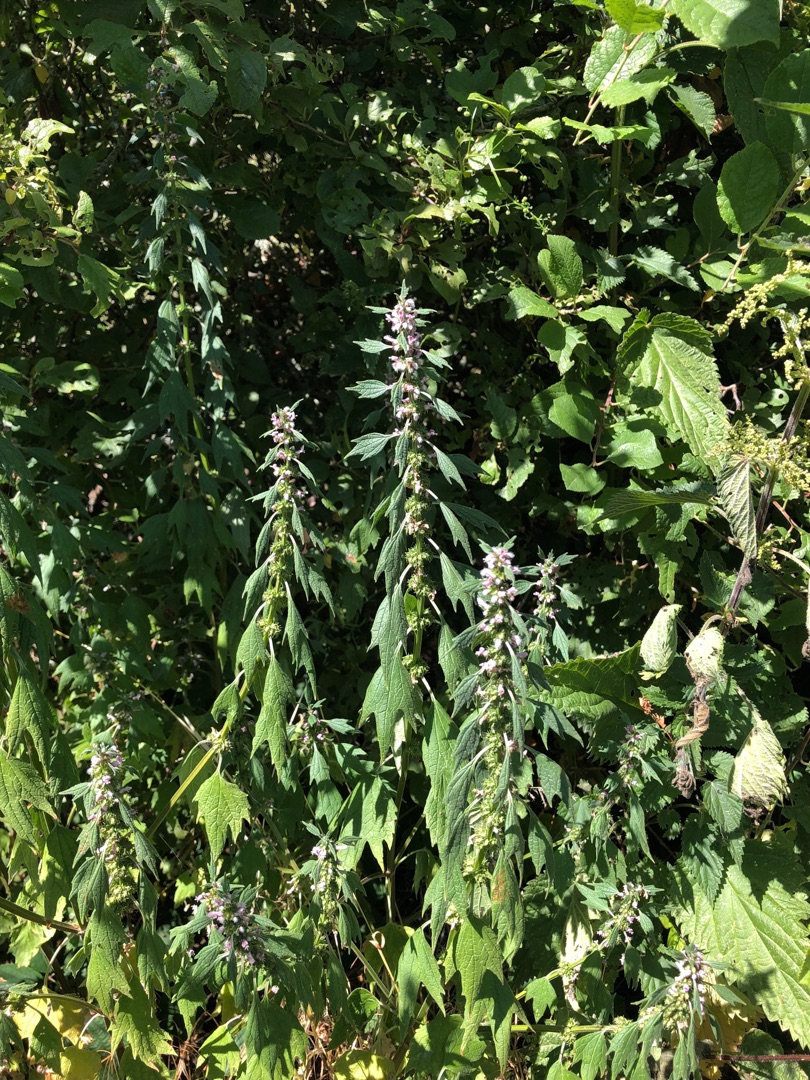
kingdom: Plantae
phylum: Tracheophyta
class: Magnoliopsida
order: Lamiales
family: Lamiaceae
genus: Leonurus
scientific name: Leonurus cardiaca
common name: Hjertespand
